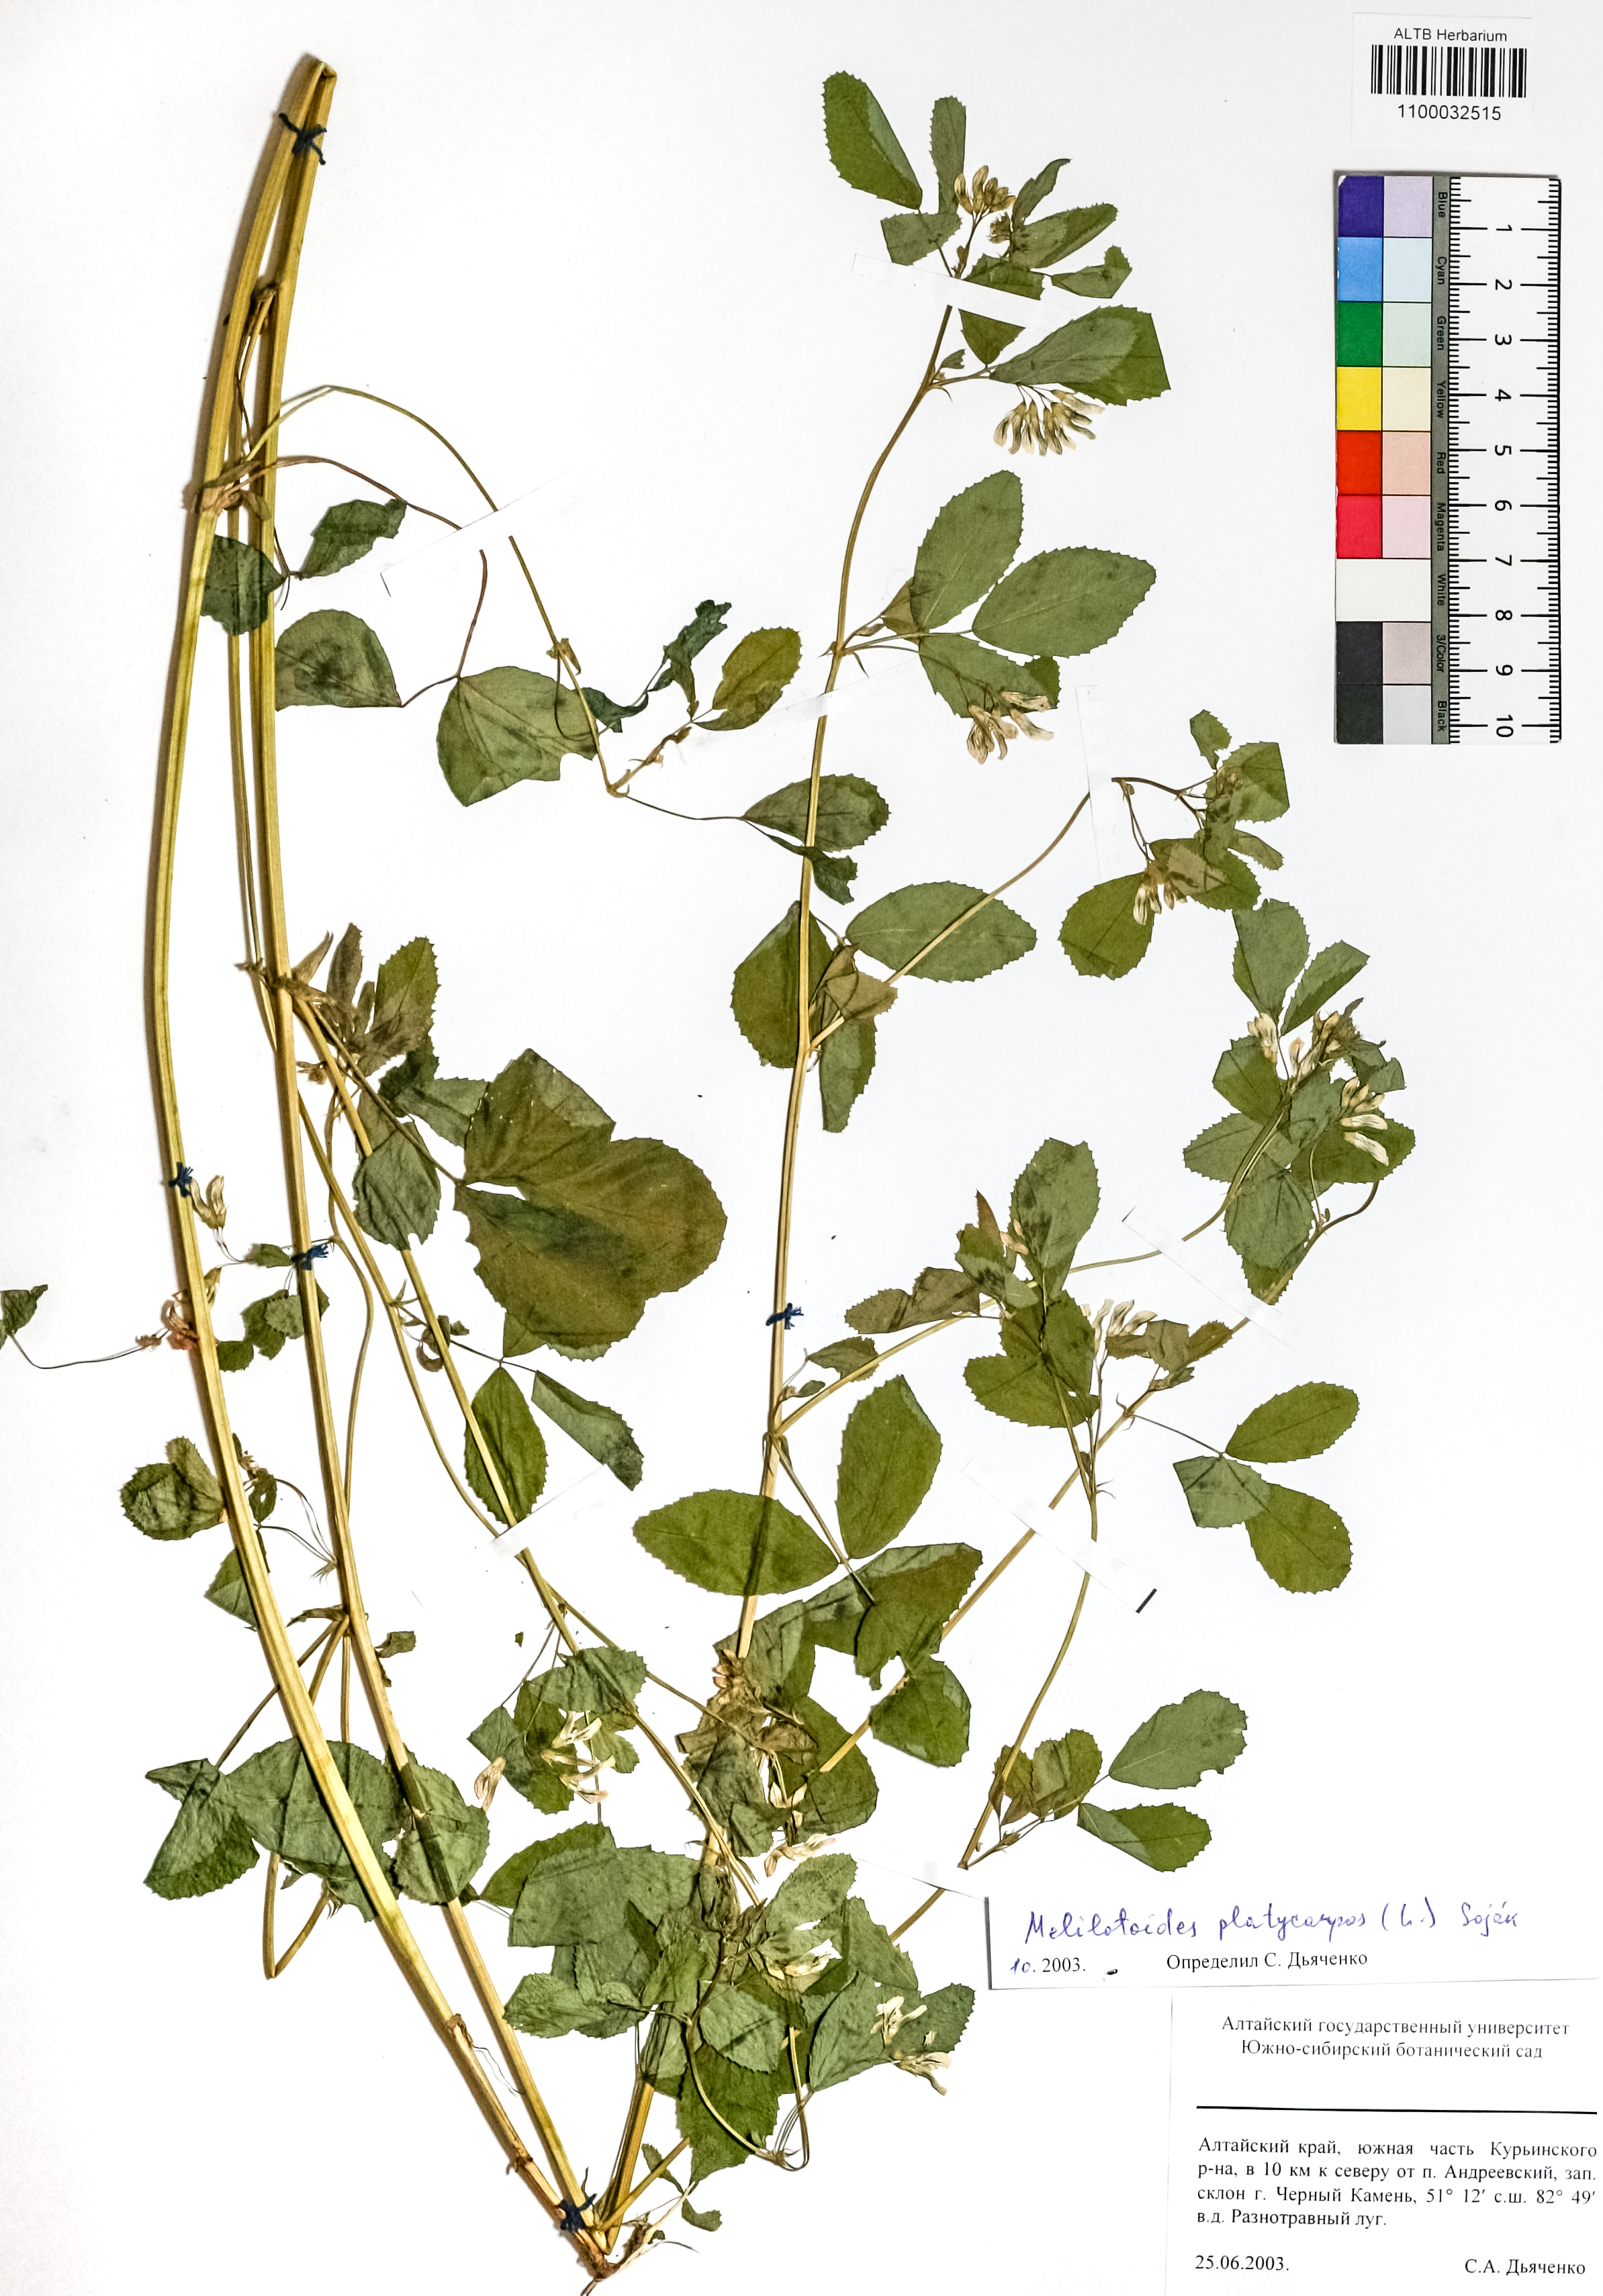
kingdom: Plantae
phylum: Tracheophyta
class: Magnoliopsida
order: Fabales
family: Fabaceae
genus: Medicago
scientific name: Medicago platycarpos
